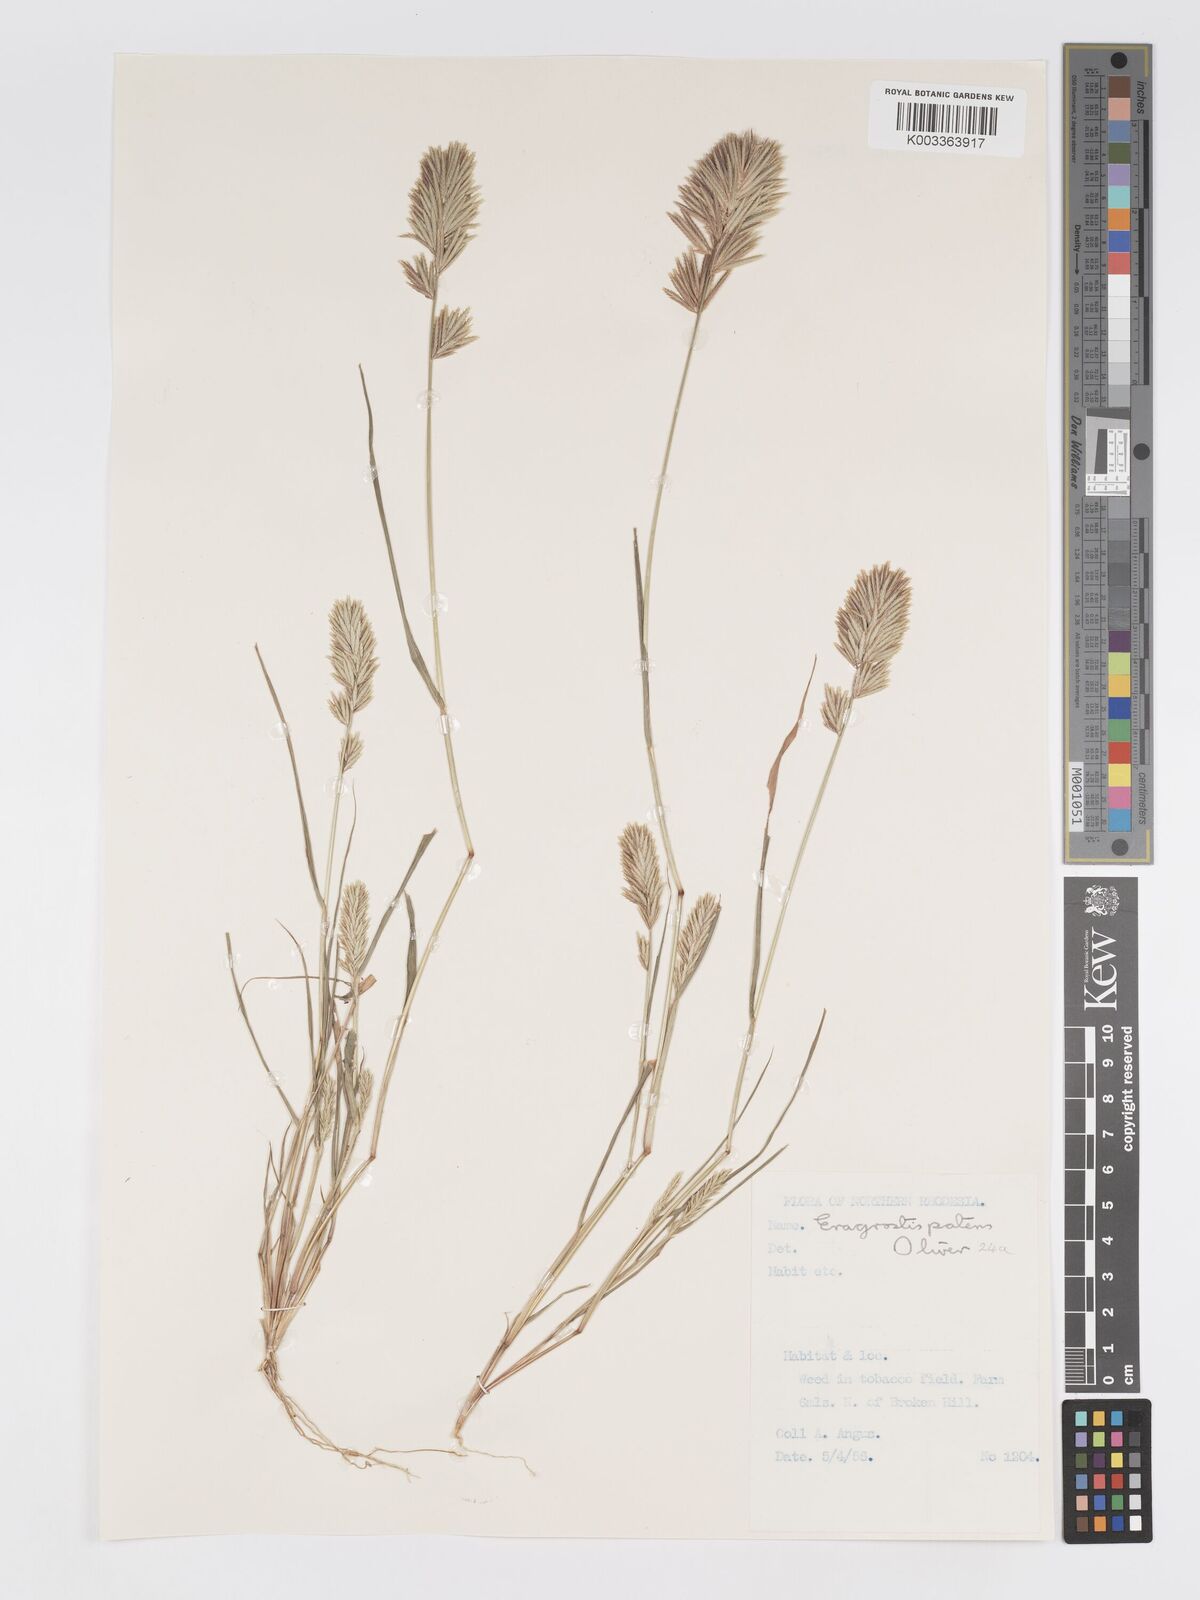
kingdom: Plantae
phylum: Tracheophyta
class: Liliopsida
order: Poales
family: Poaceae
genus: Eragrostis
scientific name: Eragrostis patens
